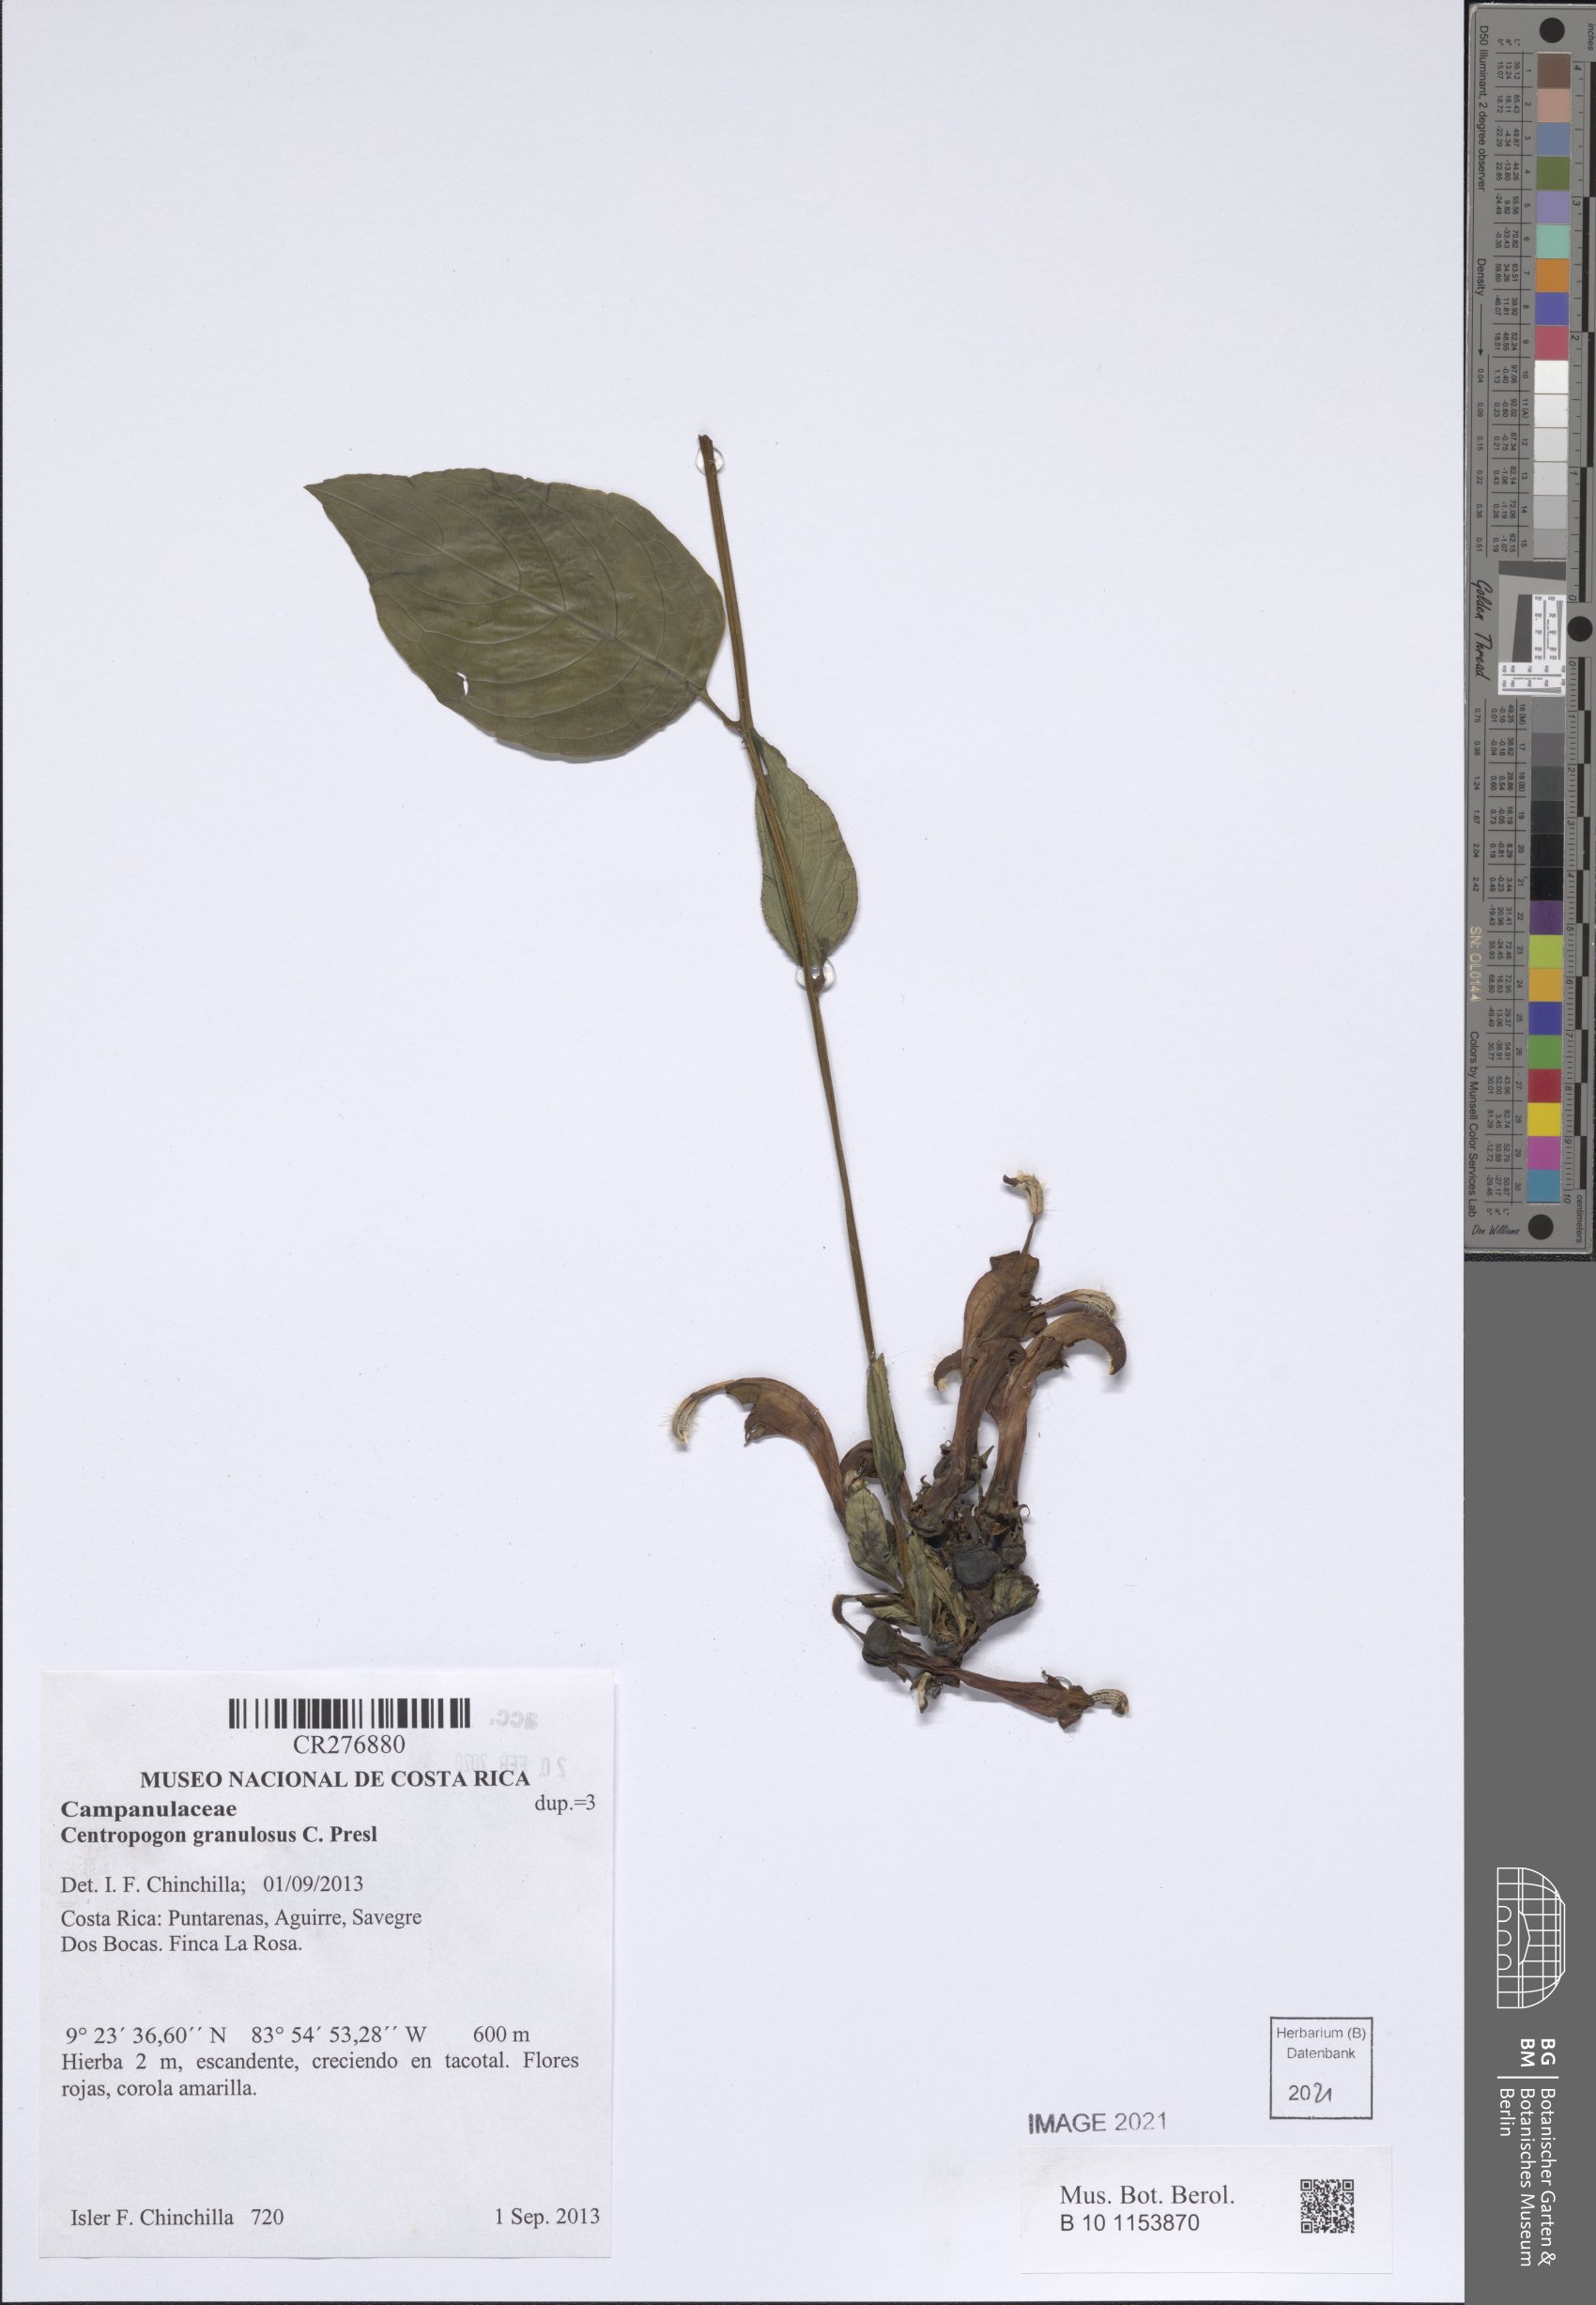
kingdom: Plantae
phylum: Tracheophyta
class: Magnoliopsida
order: Asterales
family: Campanulaceae
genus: Centropogon
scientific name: Centropogon granulosus
